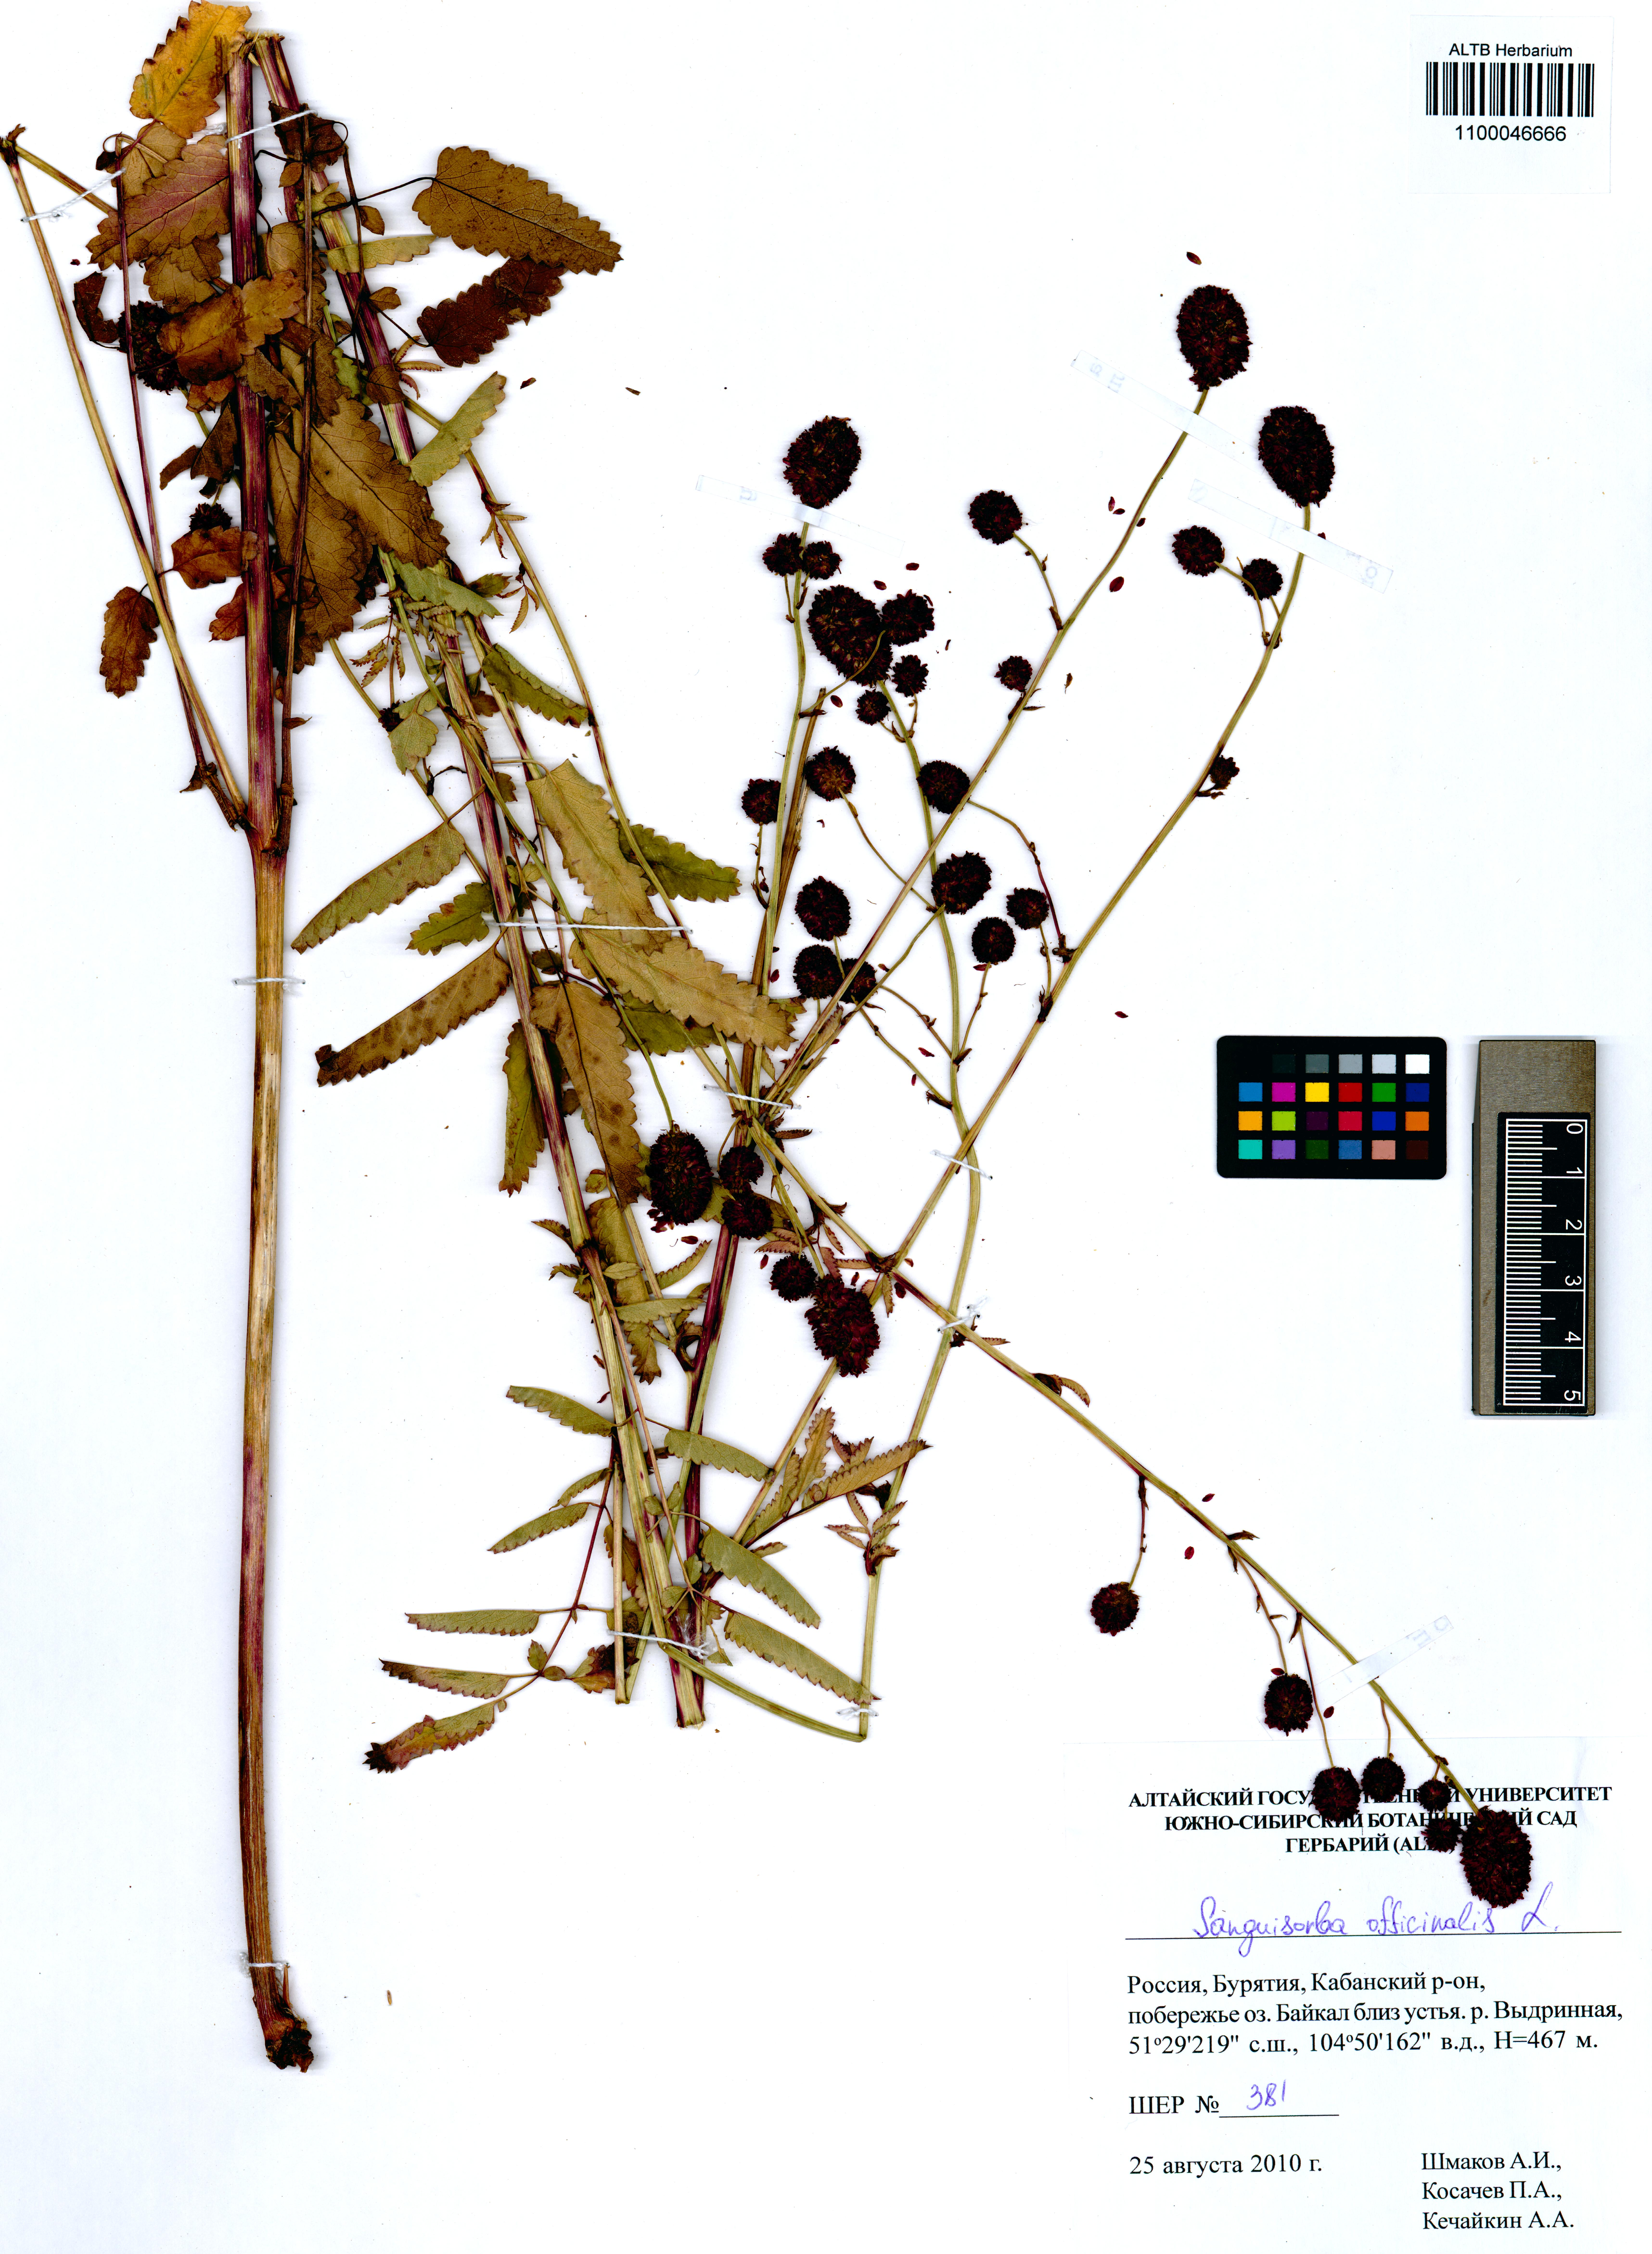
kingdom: Plantae
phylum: Tracheophyta
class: Magnoliopsida
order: Rosales
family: Rosaceae
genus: Sanguisorba
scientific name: Sanguisorba officinalis
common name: Great burnet
